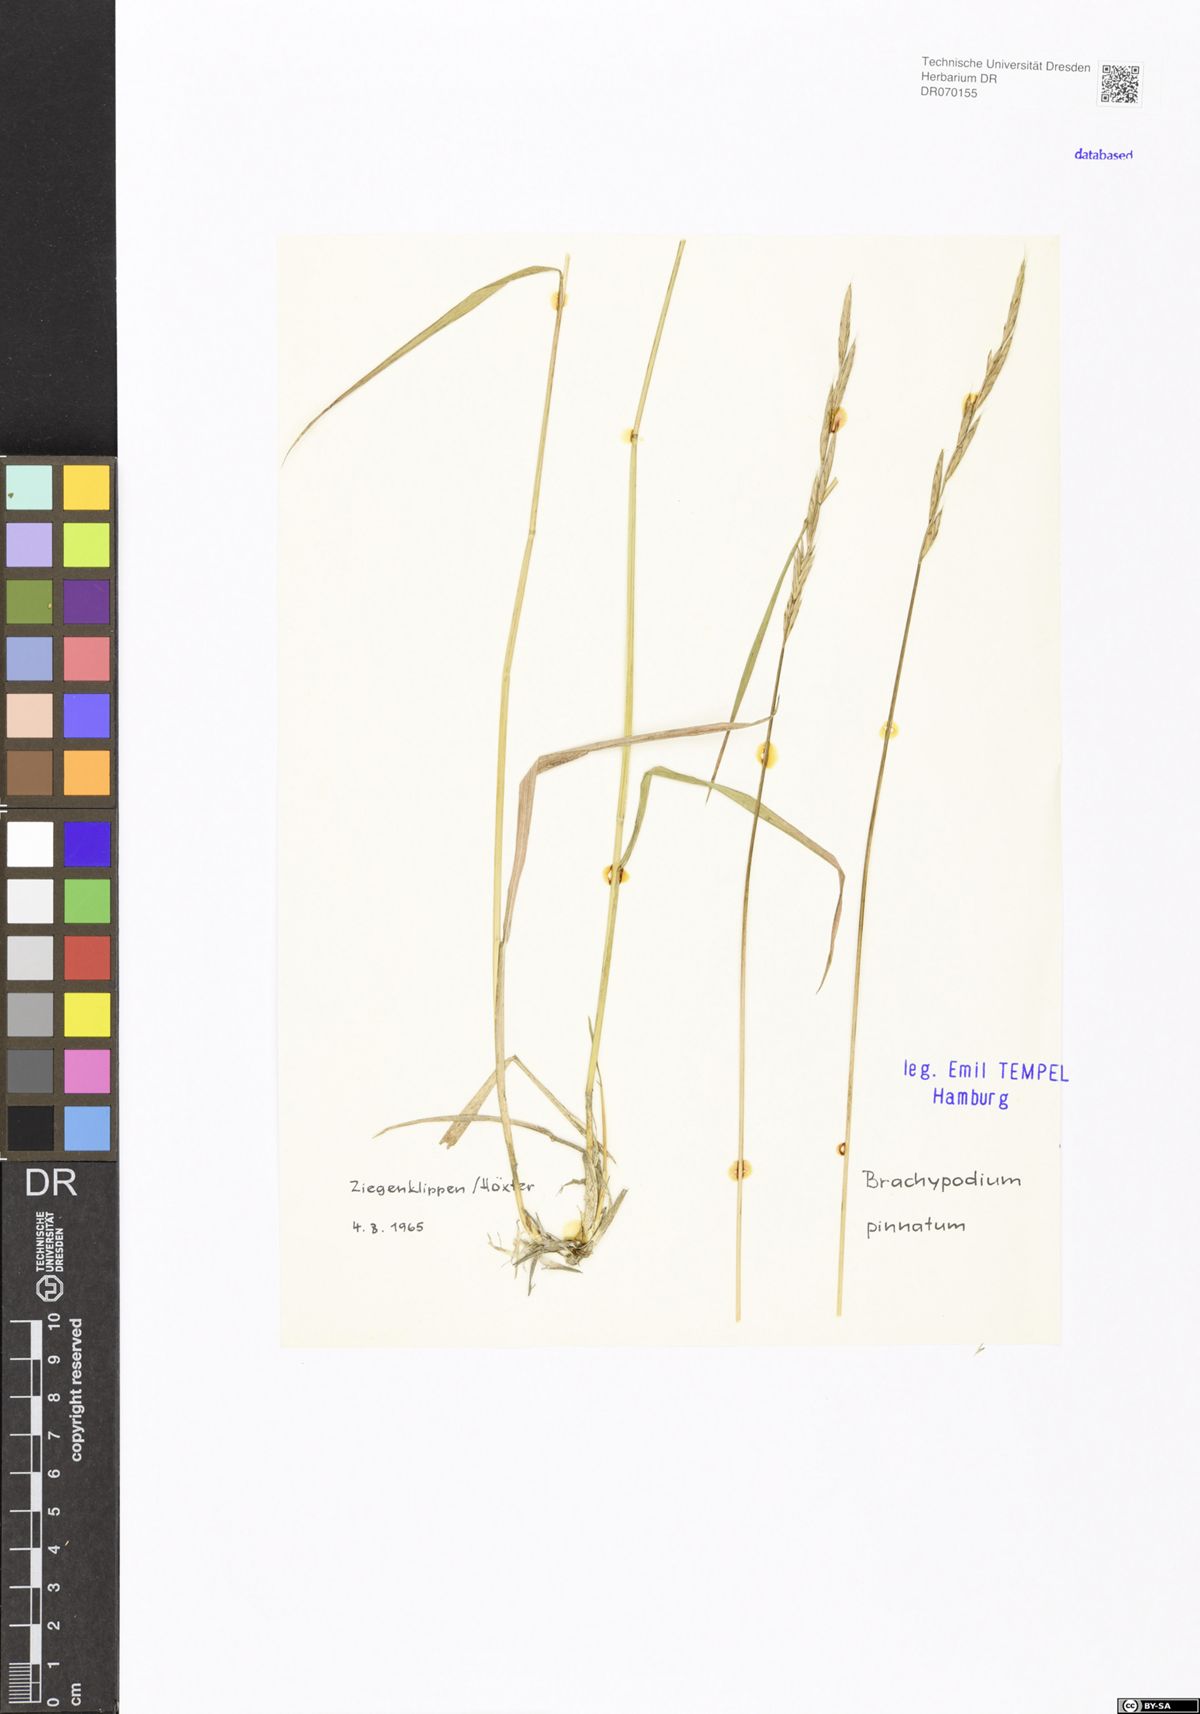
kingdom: Plantae
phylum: Tracheophyta
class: Liliopsida
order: Poales
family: Poaceae
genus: Brachypodium
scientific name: Brachypodium pinnatum
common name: Tor grass
